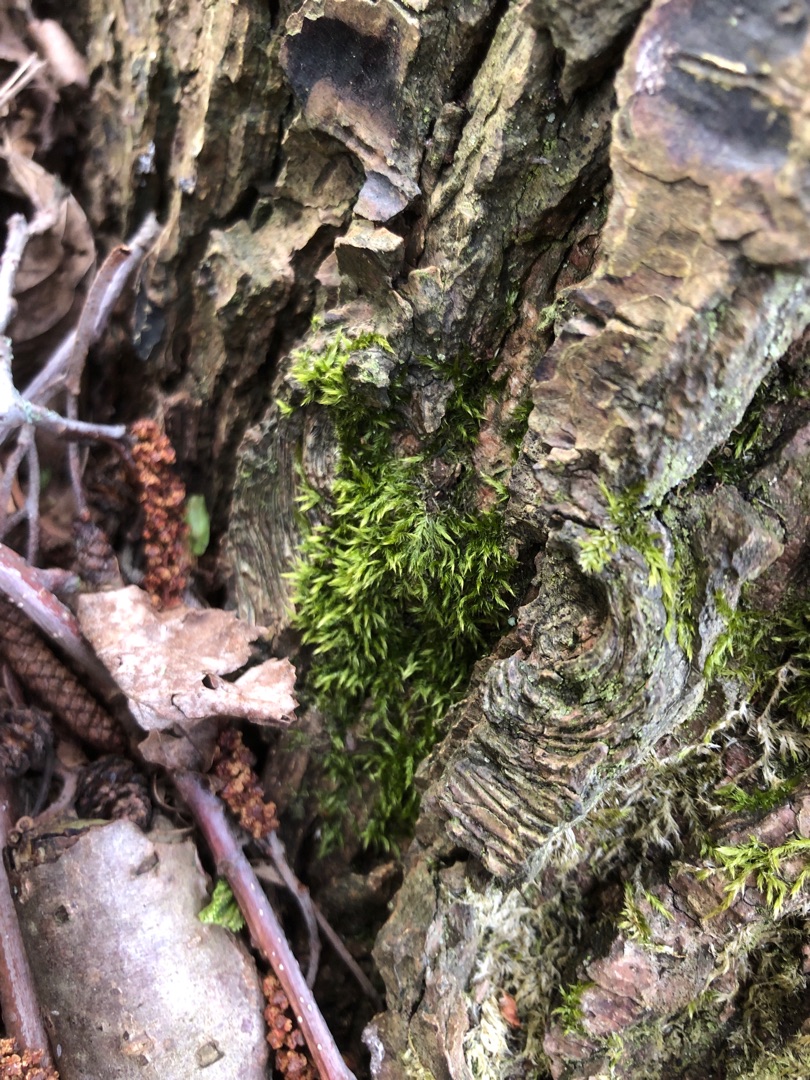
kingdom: Plantae
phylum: Bryophyta
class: Bryopsida
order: Hypnales
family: Hypnaceae
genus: Hypnum
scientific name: Hypnum
